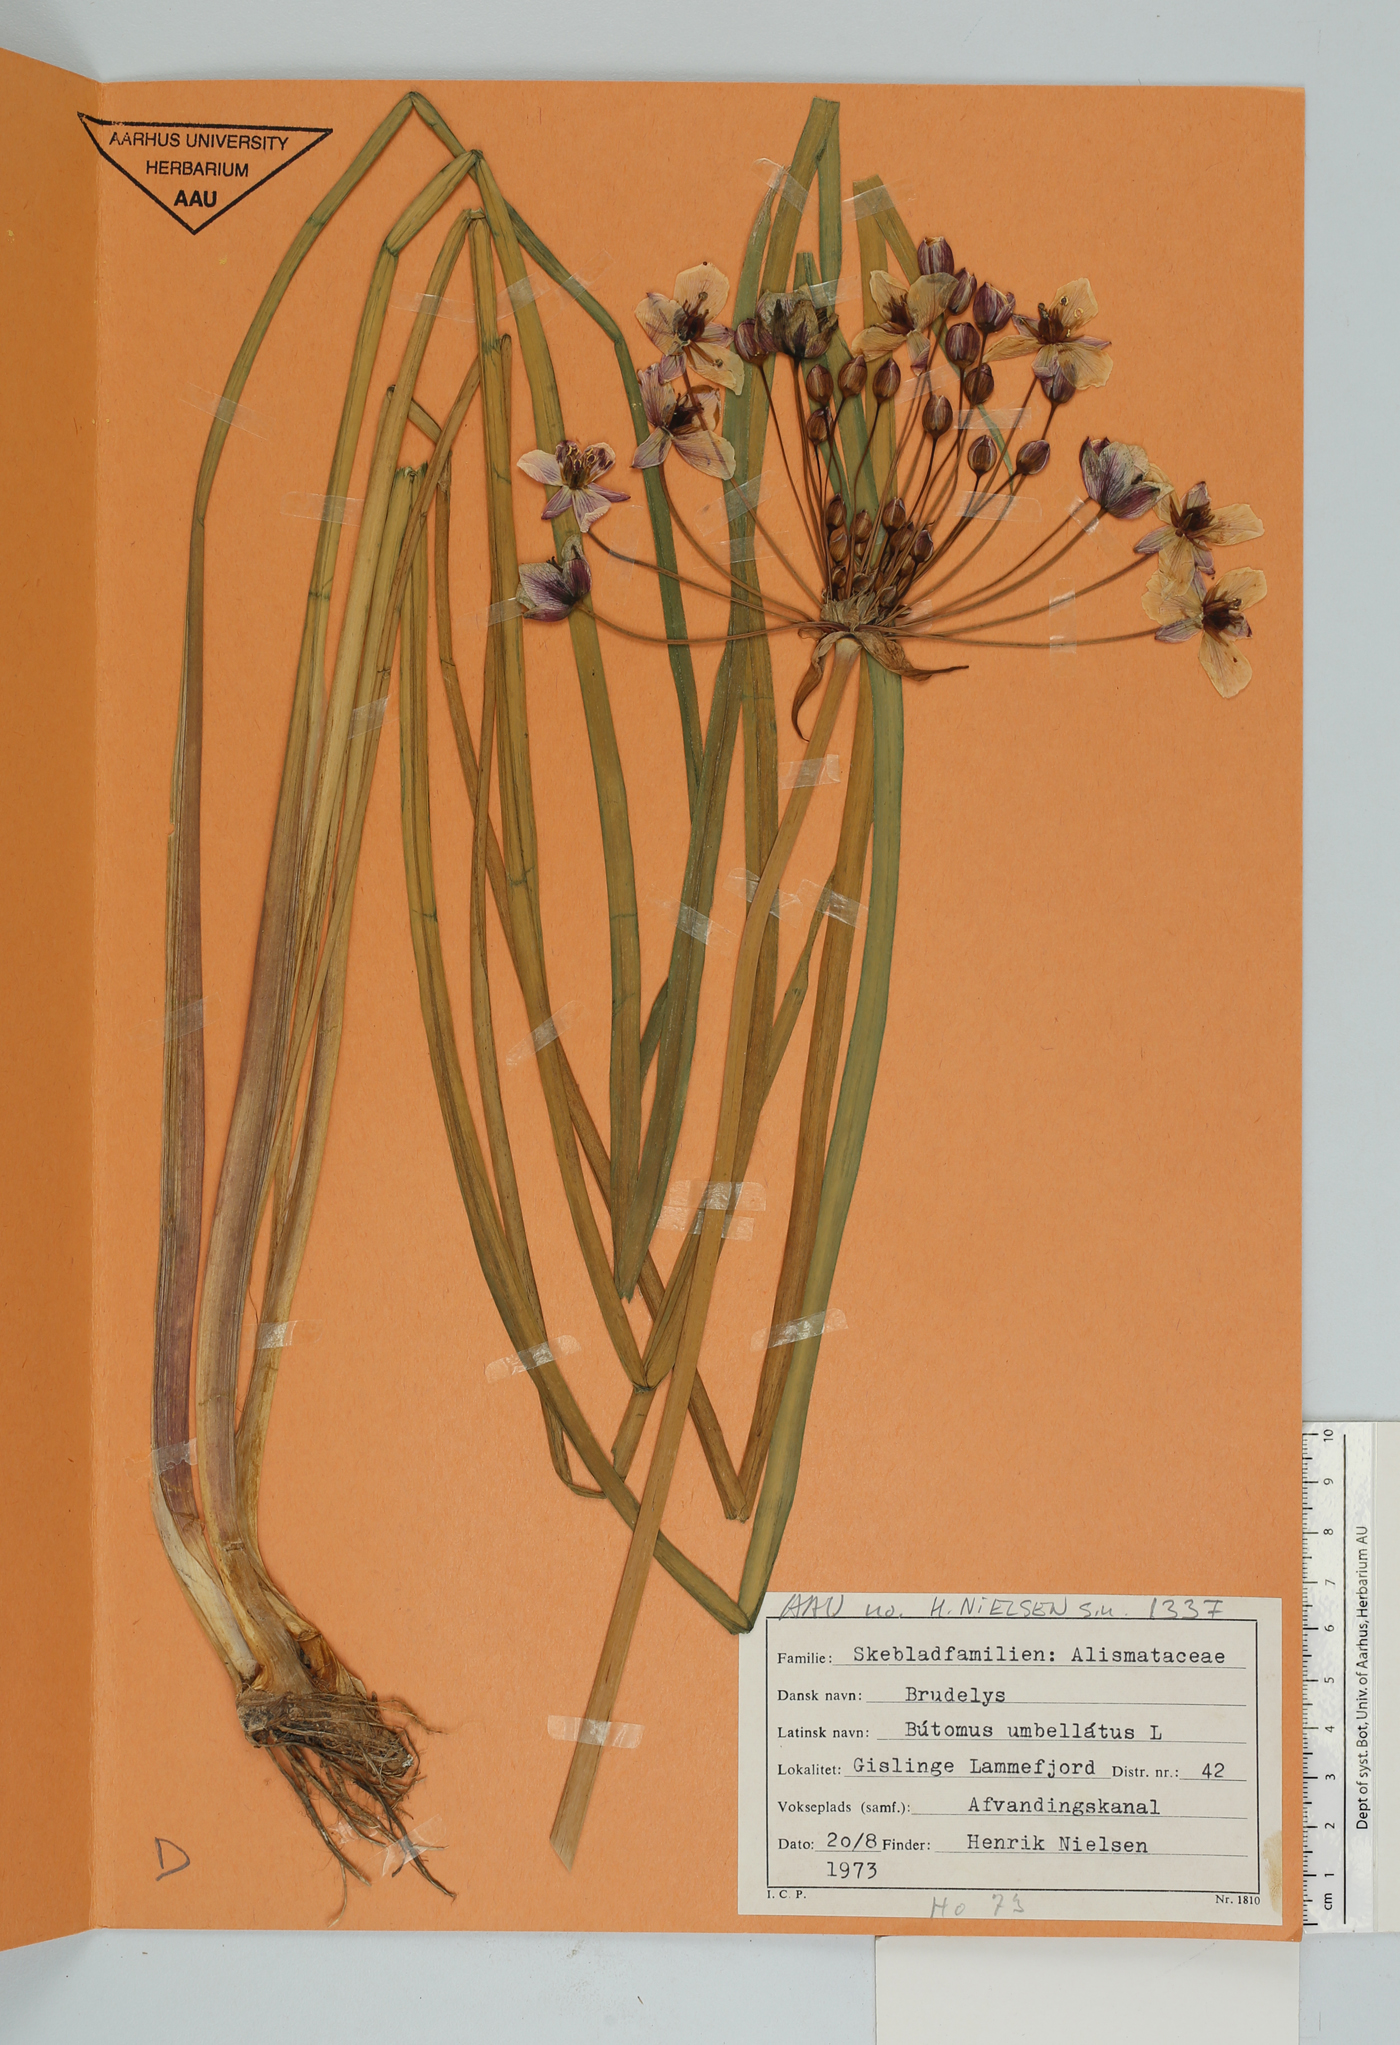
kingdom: Plantae
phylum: Tracheophyta
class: Liliopsida
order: Alismatales
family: Butomaceae
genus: Butomus
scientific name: Butomus umbellatus
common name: Flowering-rush
